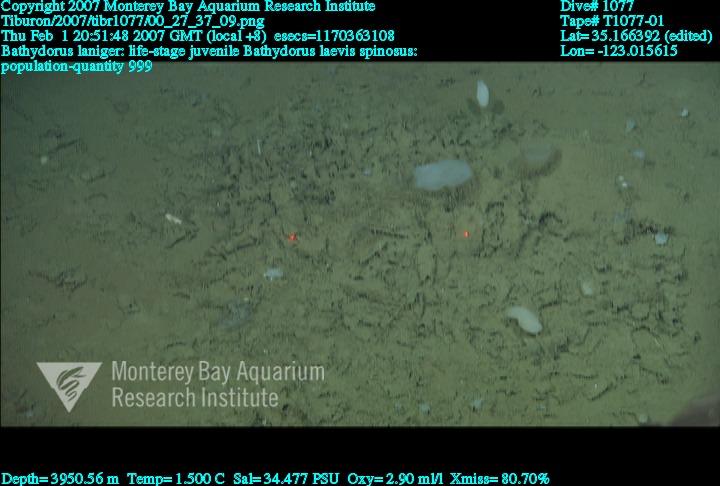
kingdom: Animalia
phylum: Porifera
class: Hexactinellida
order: Lyssacinosida
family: Rossellidae
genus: Bathydorus
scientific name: Bathydorus laniger
